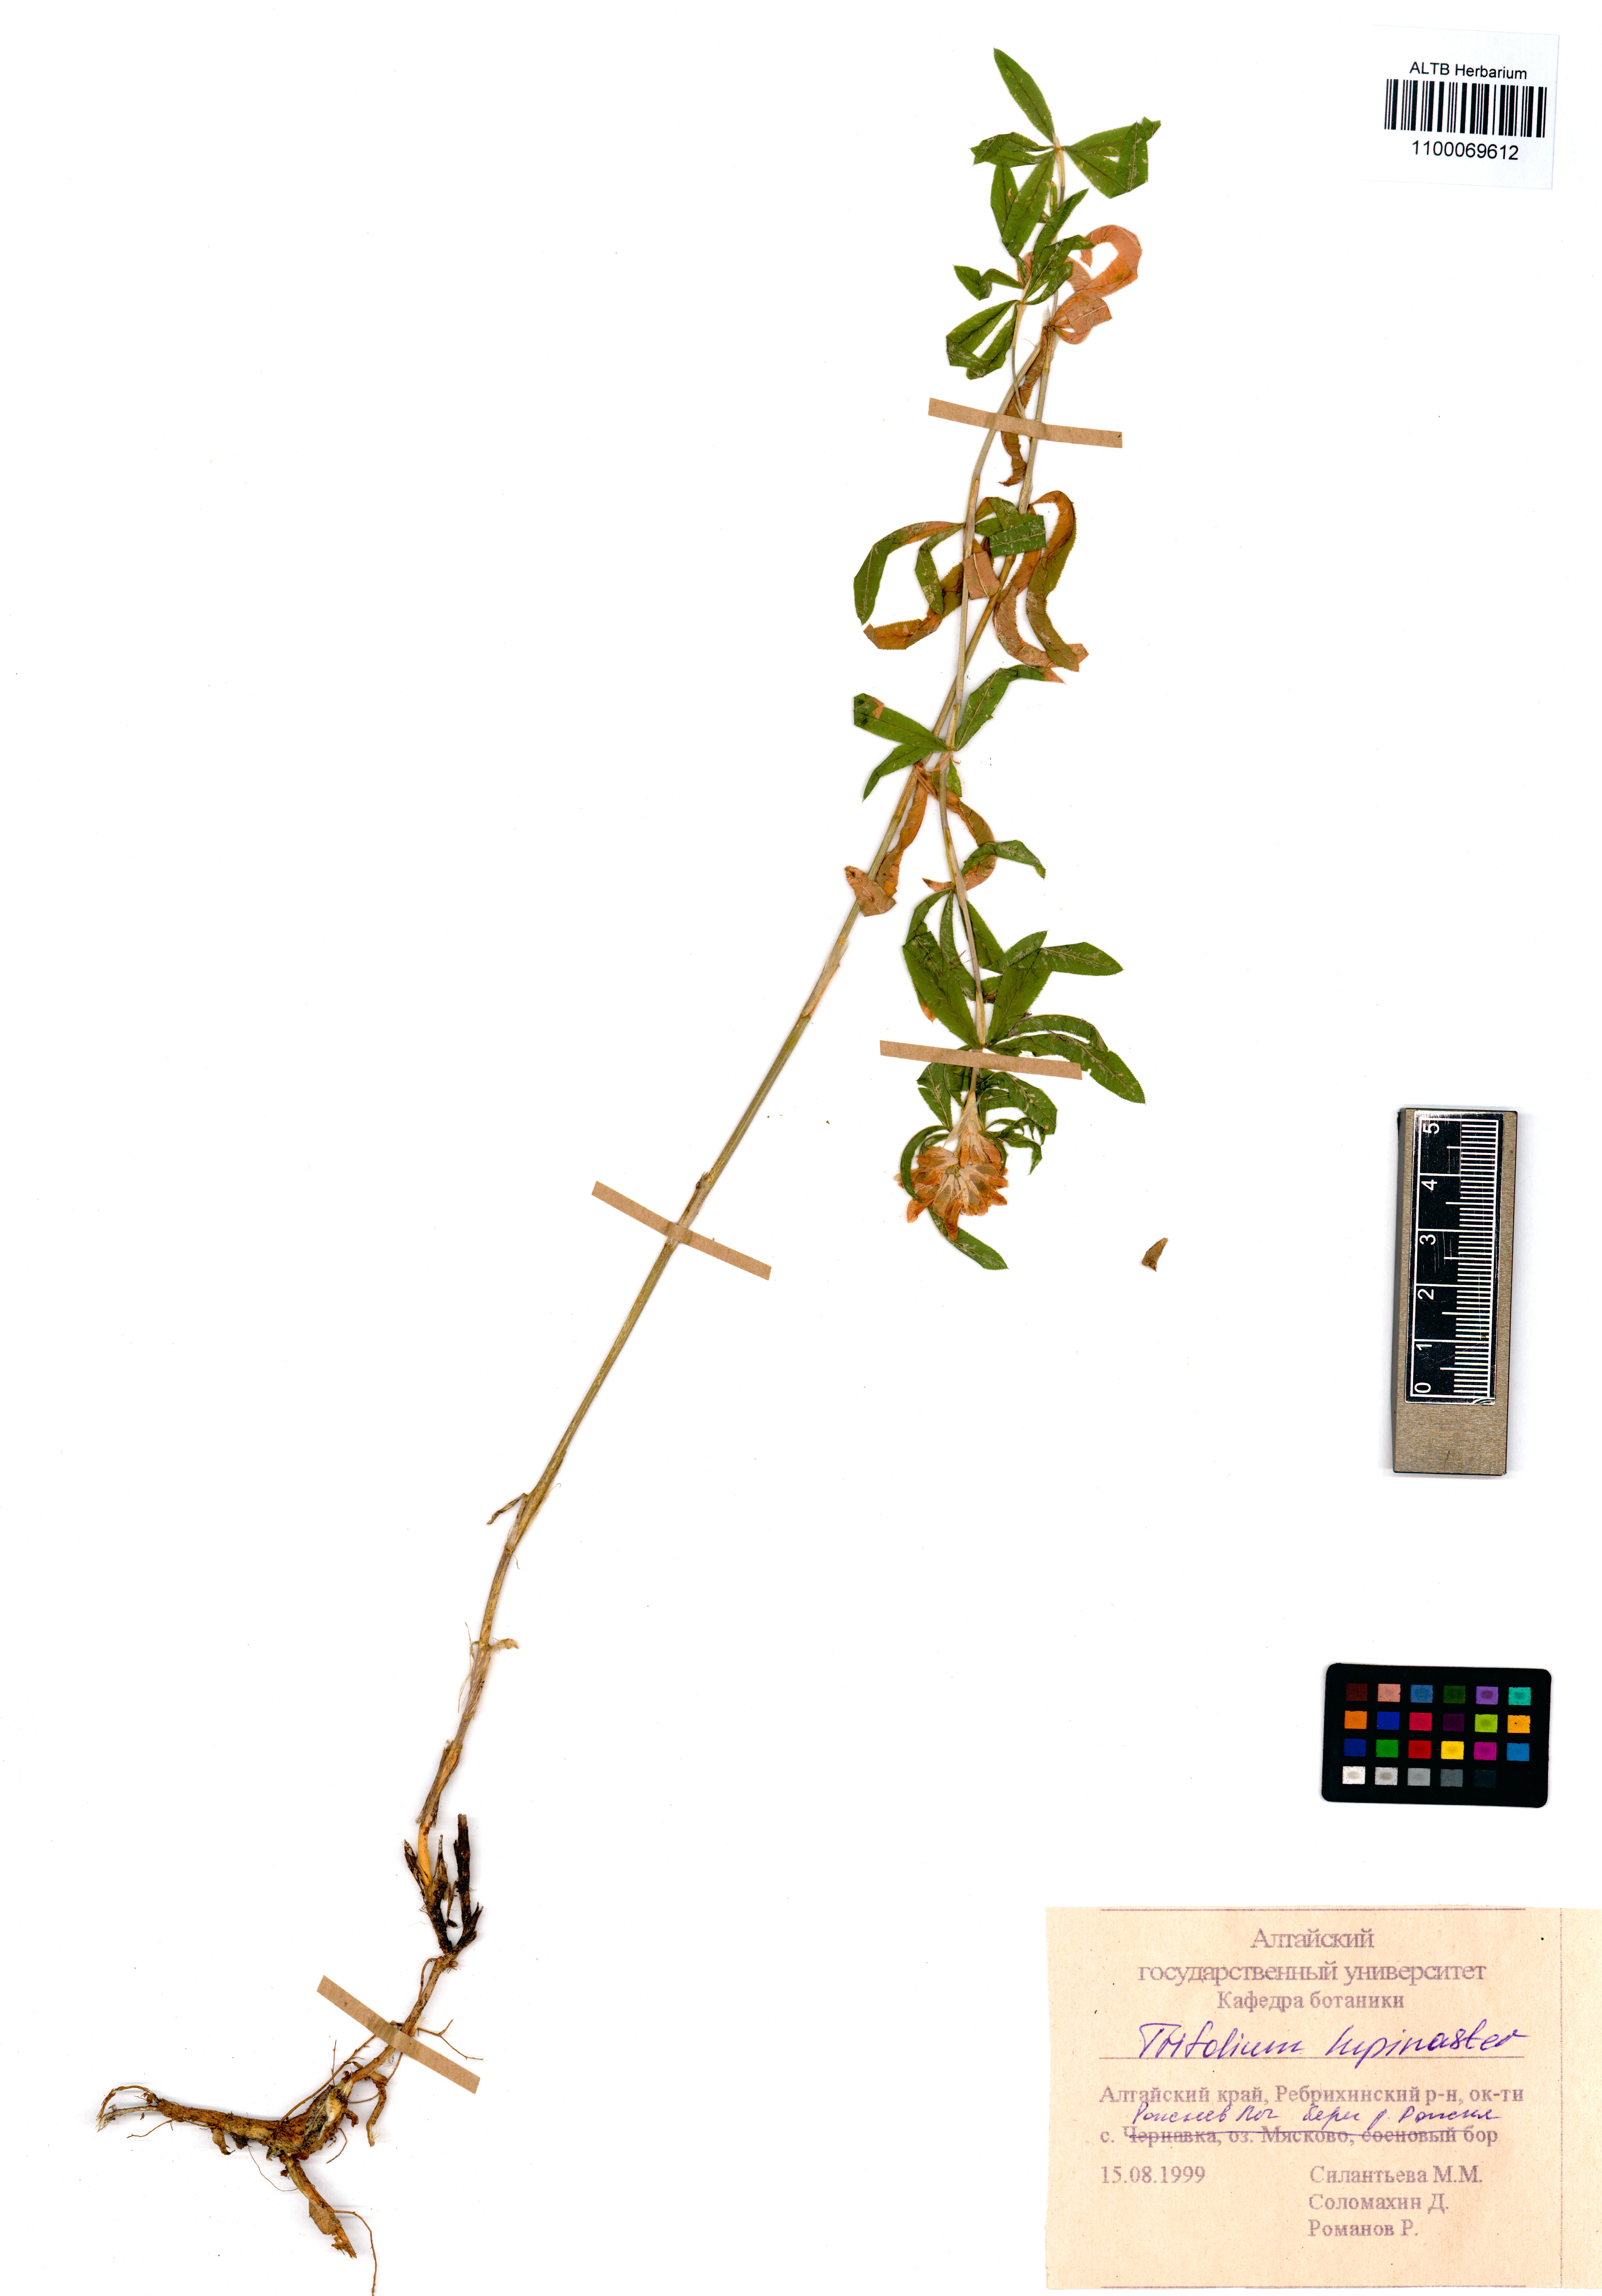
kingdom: Plantae
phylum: Tracheophyta
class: Magnoliopsida
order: Fabales
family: Fabaceae
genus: Trifolium
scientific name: Trifolium lupinaster
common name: Lupine clover
